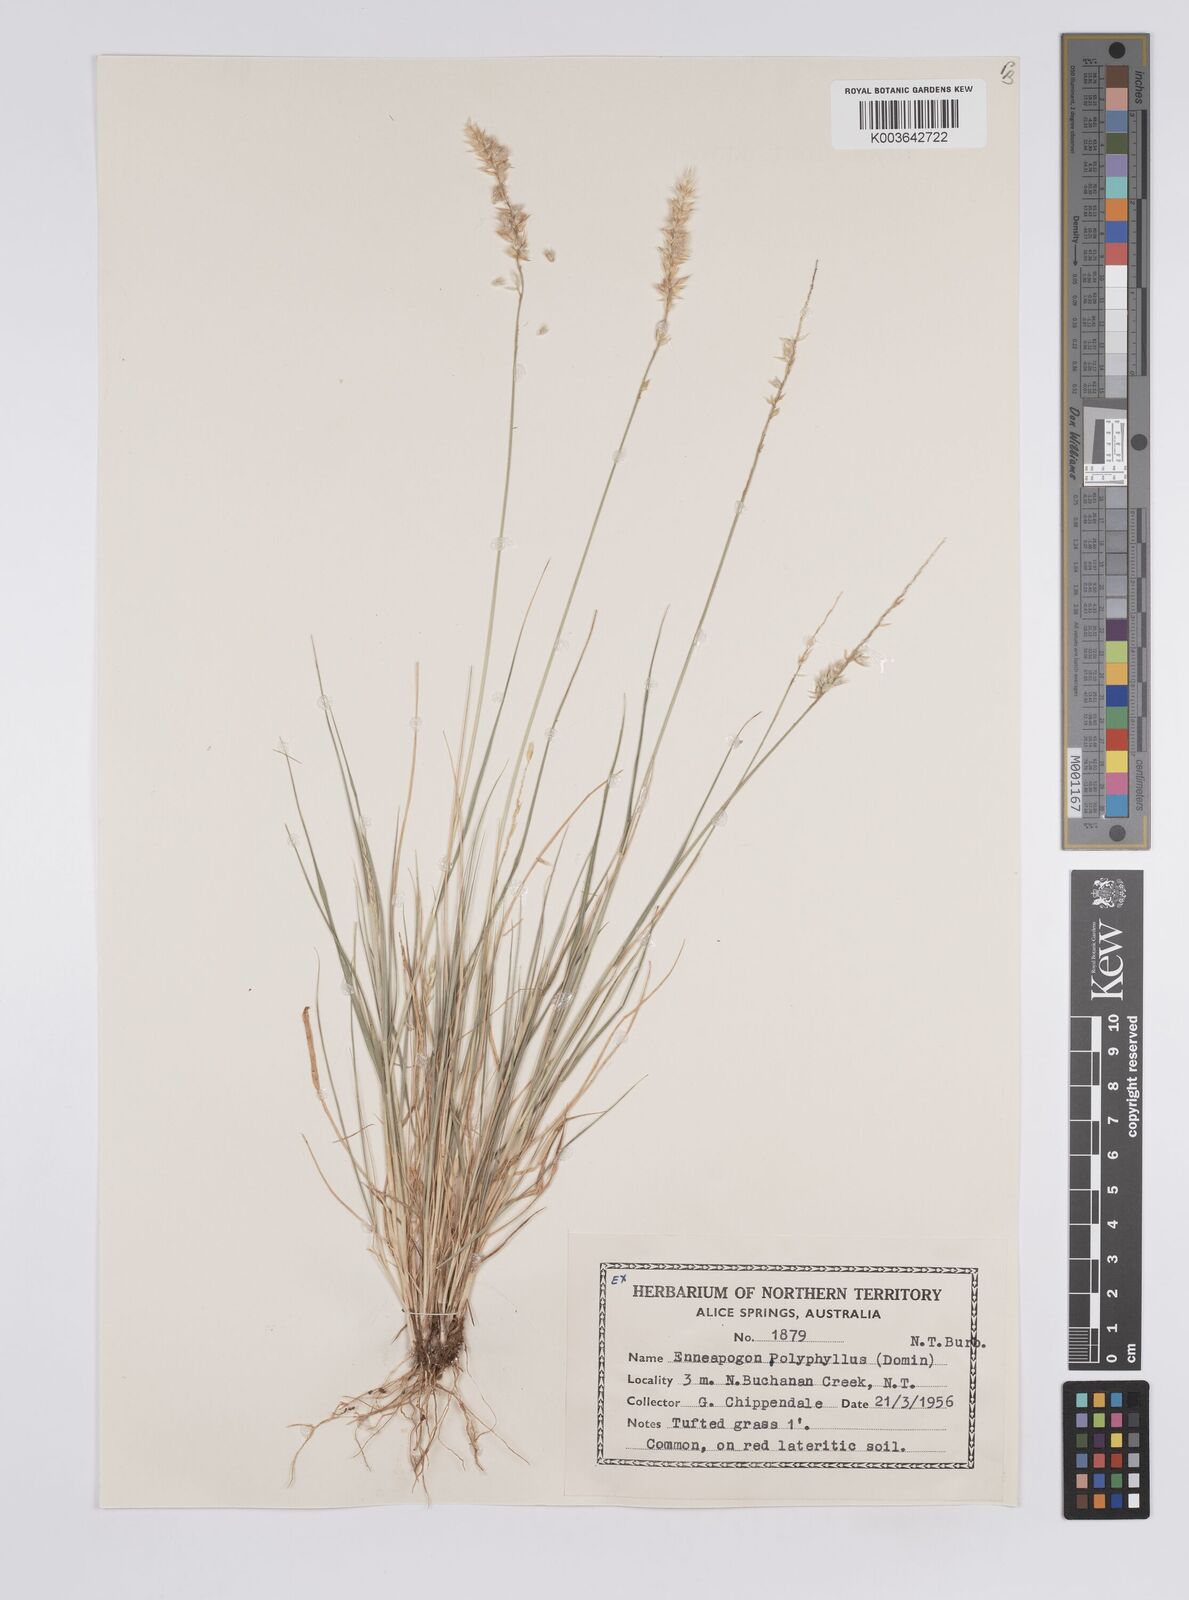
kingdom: Plantae
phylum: Tracheophyta
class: Liliopsida
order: Poales
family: Poaceae
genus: Enneapogon
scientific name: Enneapogon polyphyllus
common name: Leafy nineawn
